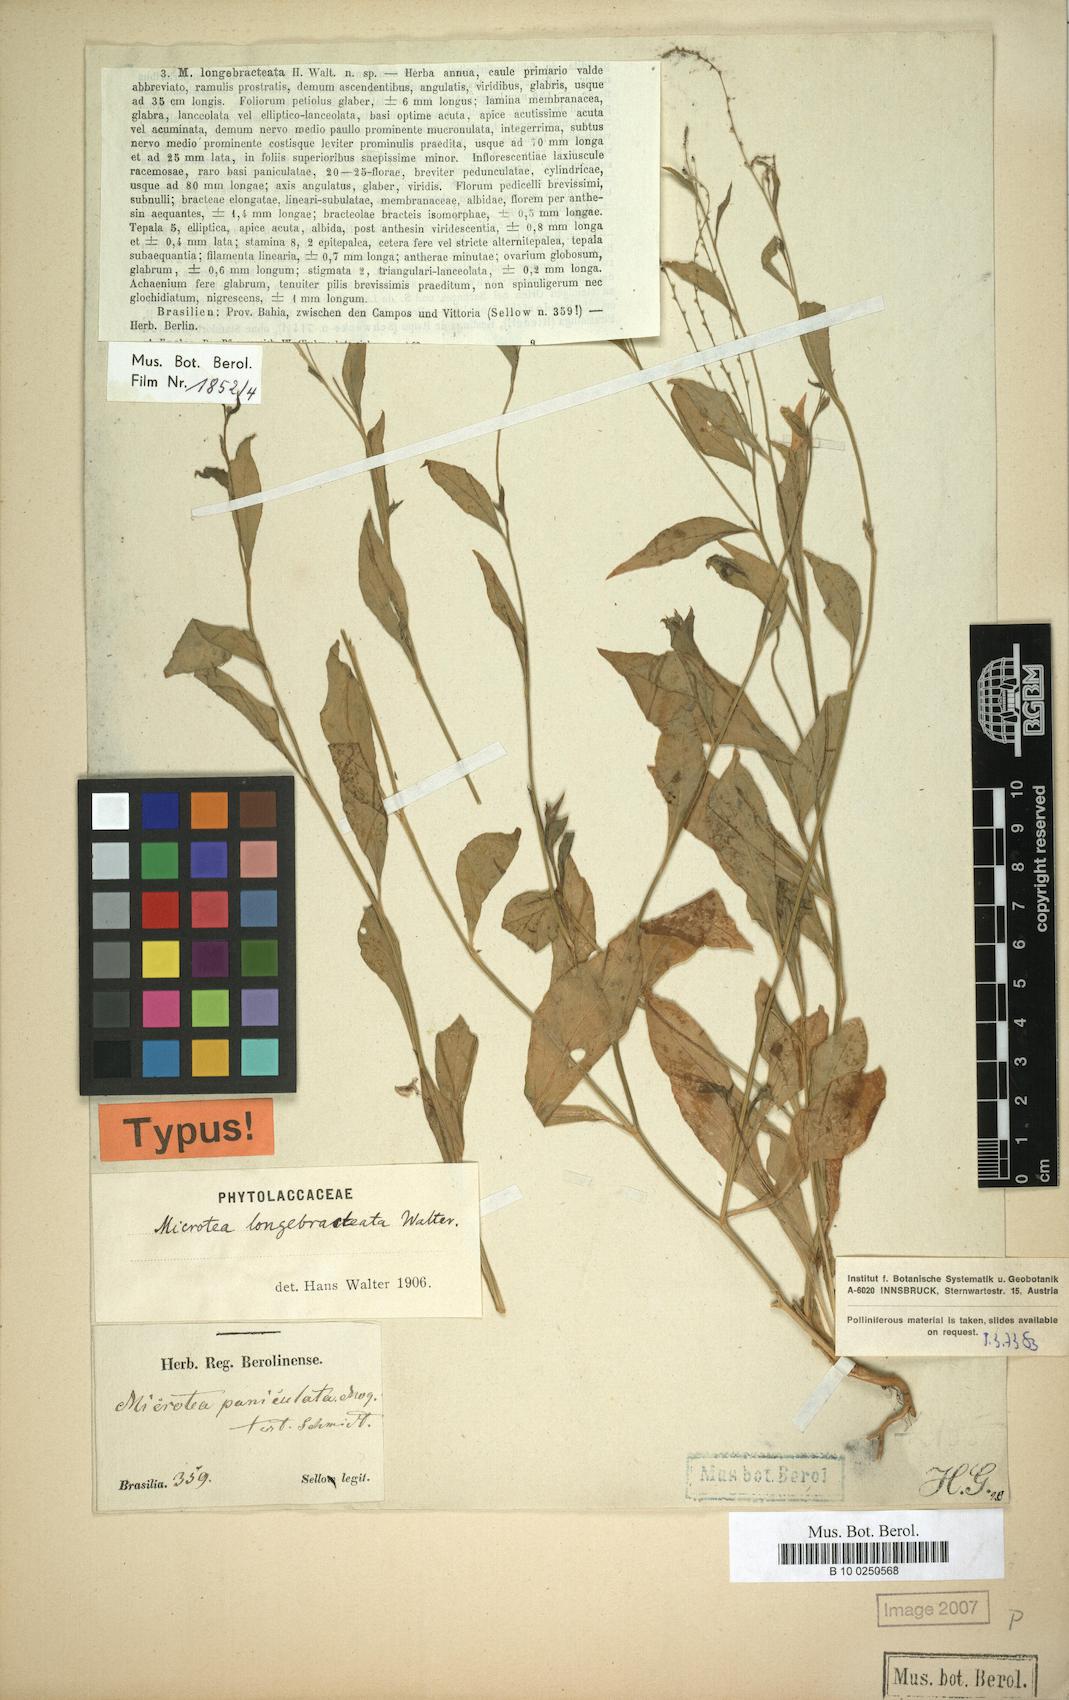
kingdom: Plantae
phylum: Tracheophyta
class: Magnoliopsida
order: Caryophyllales
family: Microteaceae
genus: Microtea
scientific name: Microtea celosioides
